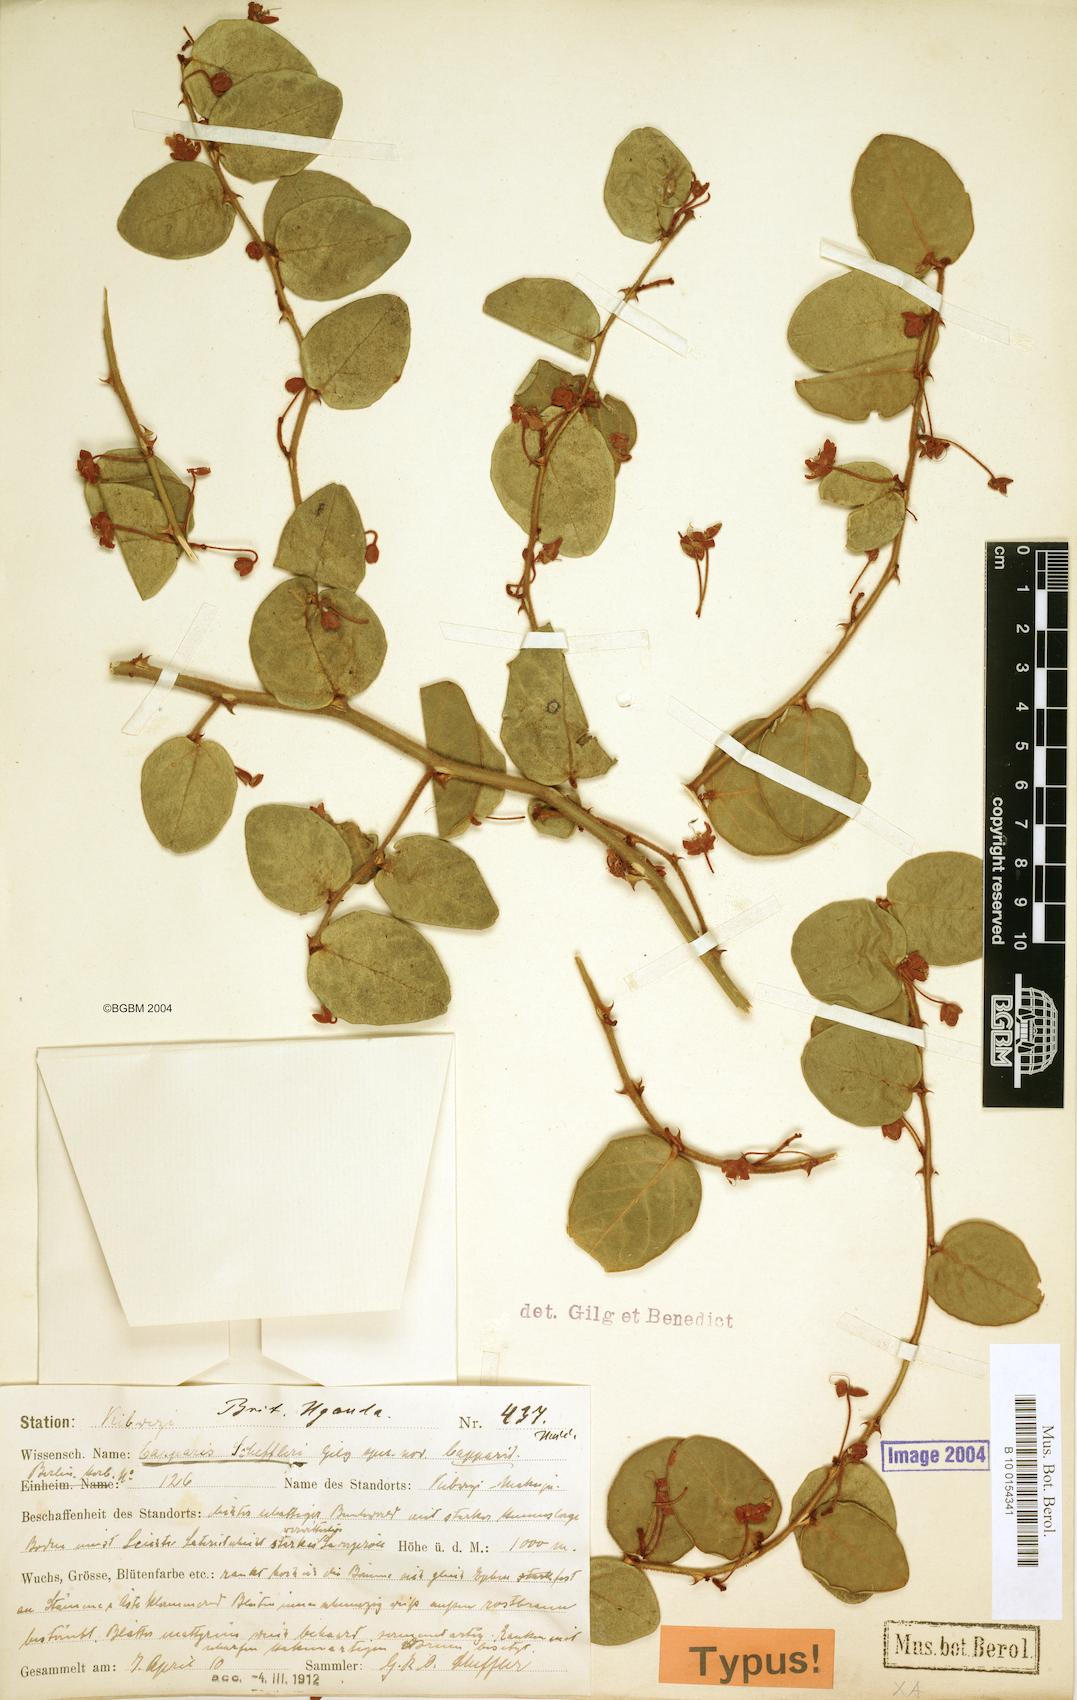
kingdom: Plantae
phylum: Tracheophyta
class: Magnoliopsida
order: Brassicales
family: Capparaceae
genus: Capparis
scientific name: Capparis fascicularis
